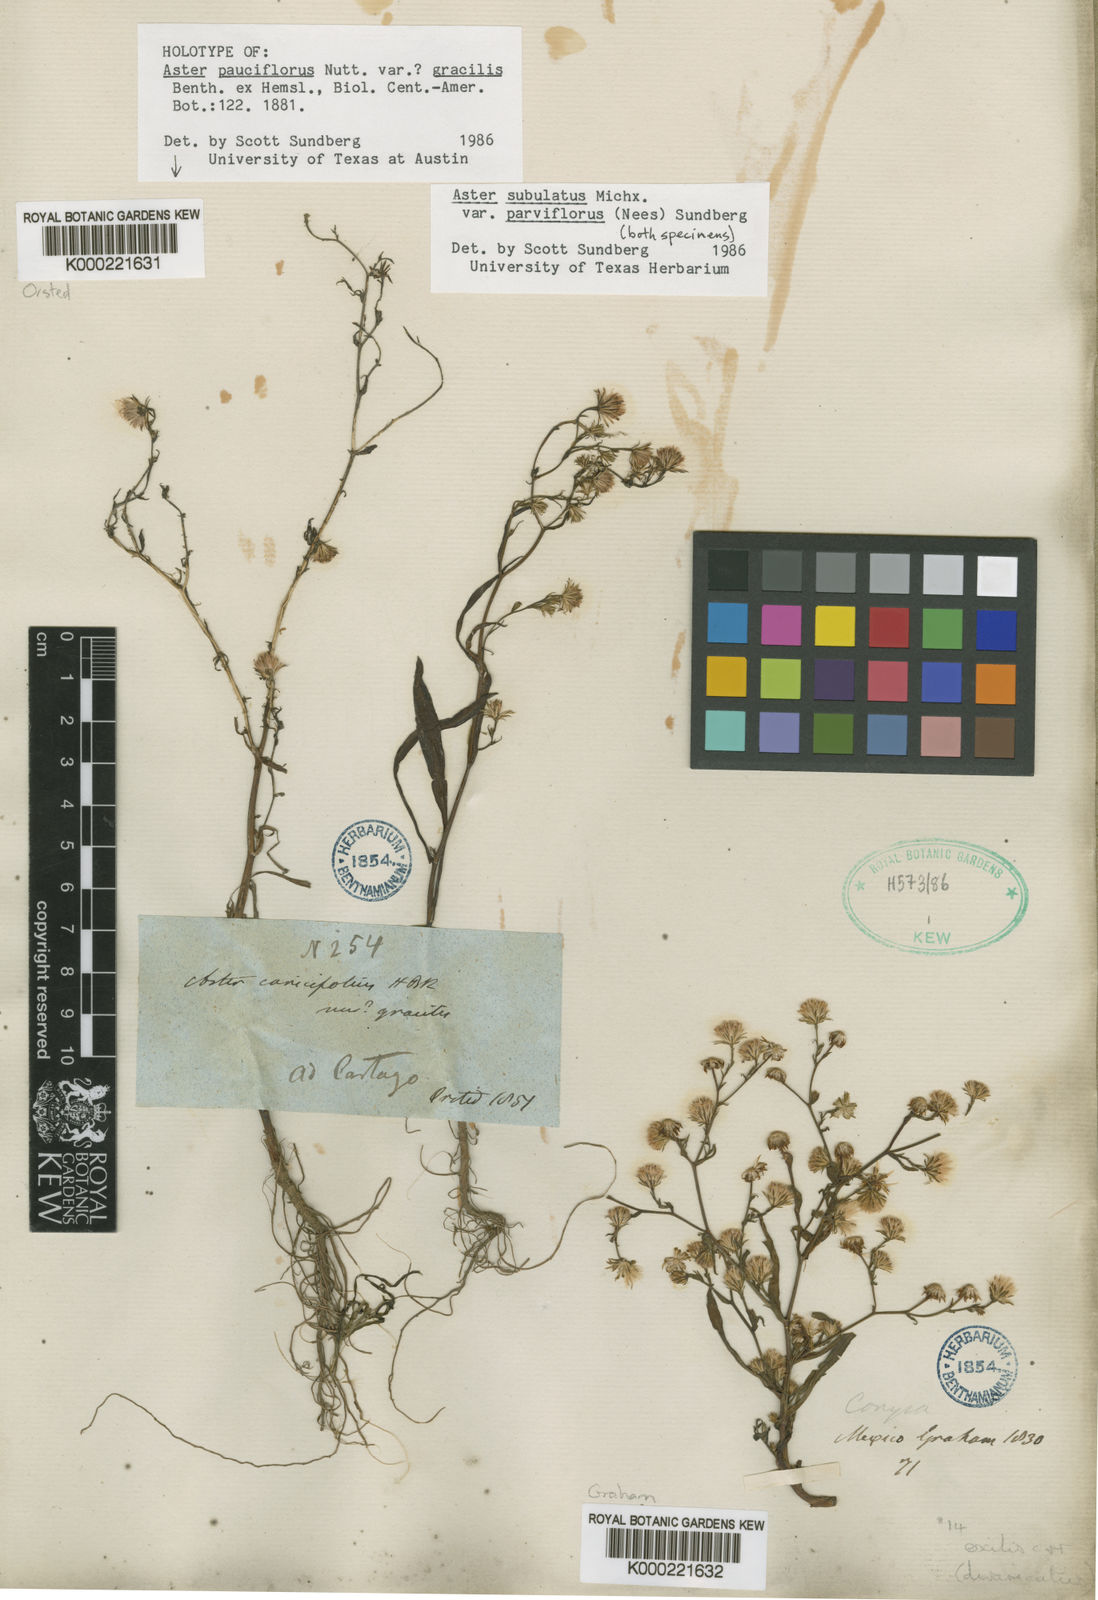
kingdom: Plantae
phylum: Tracheophyta
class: Magnoliopsida
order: Asterales
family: Asteraceae
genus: Symphyotrichum
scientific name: Symphyotrichum subulatum
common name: Annual saltmarsh aster
